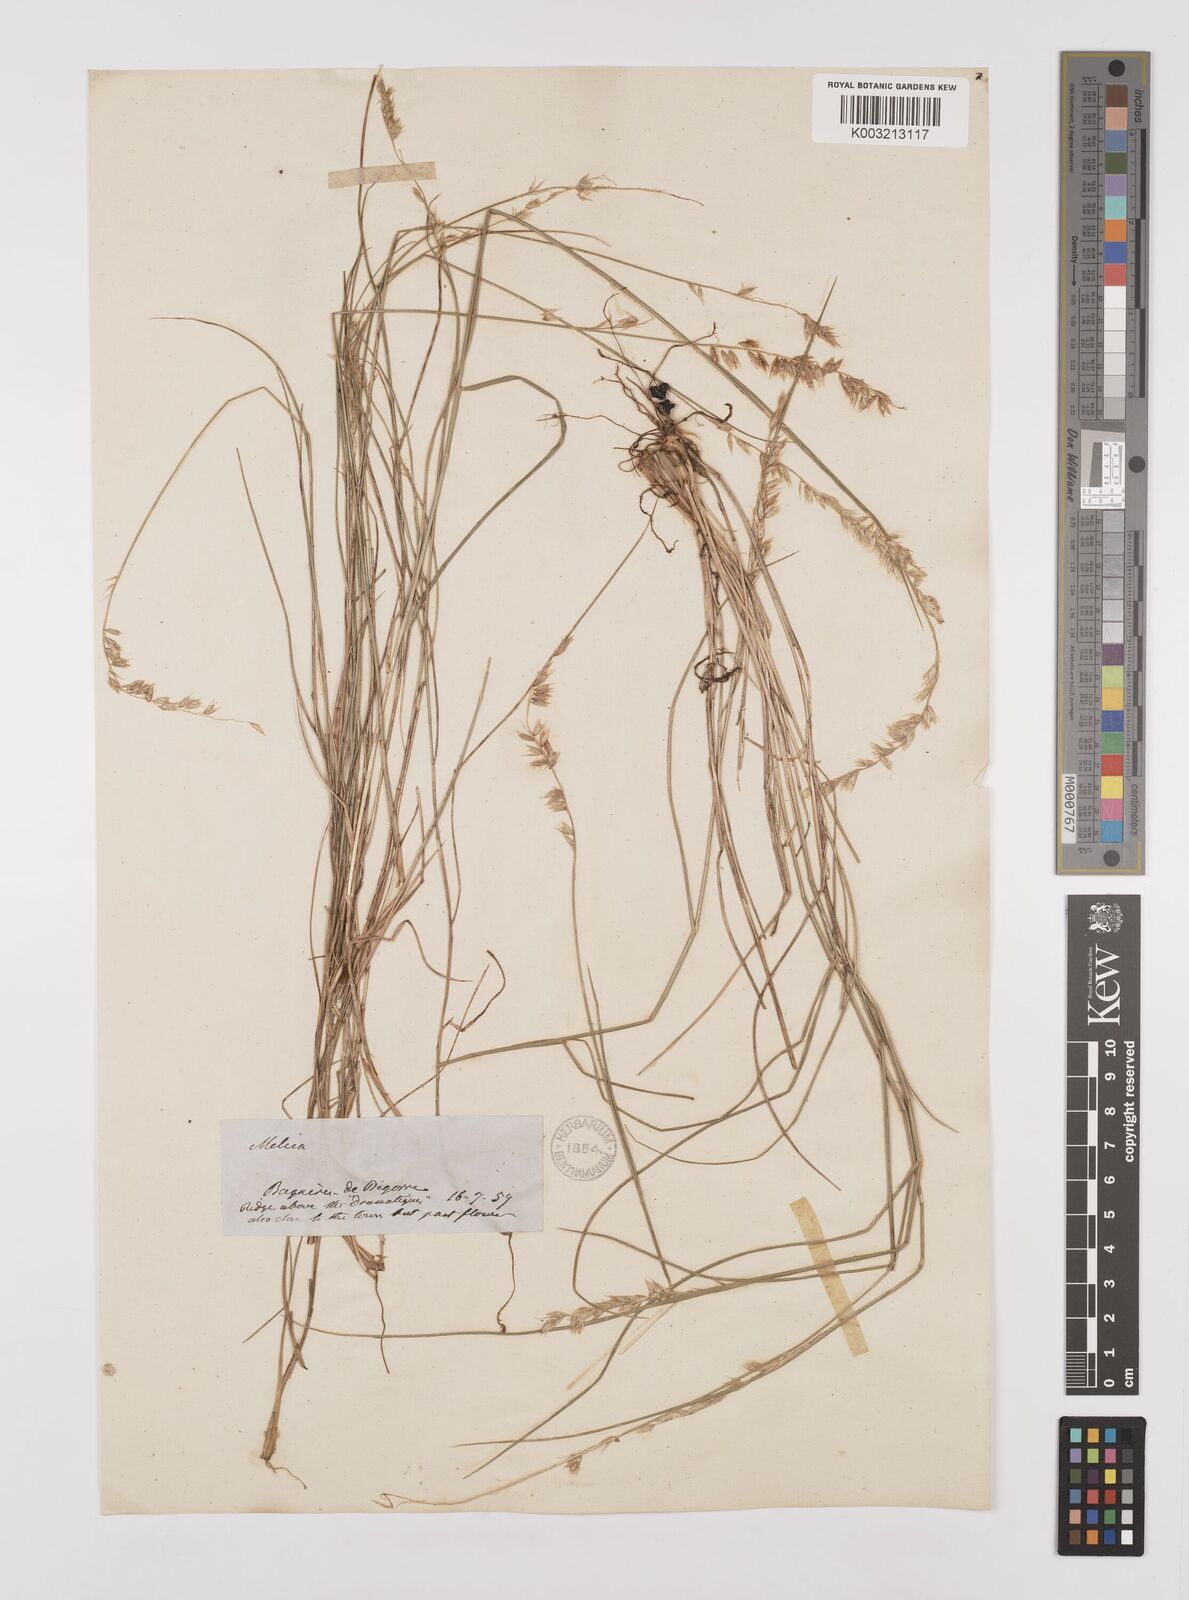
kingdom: Plantae
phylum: Tracheophyta
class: Liliopsida
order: Poales
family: Poaceae
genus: Melica
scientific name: Melica ciliata
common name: Hairy melicgrass
